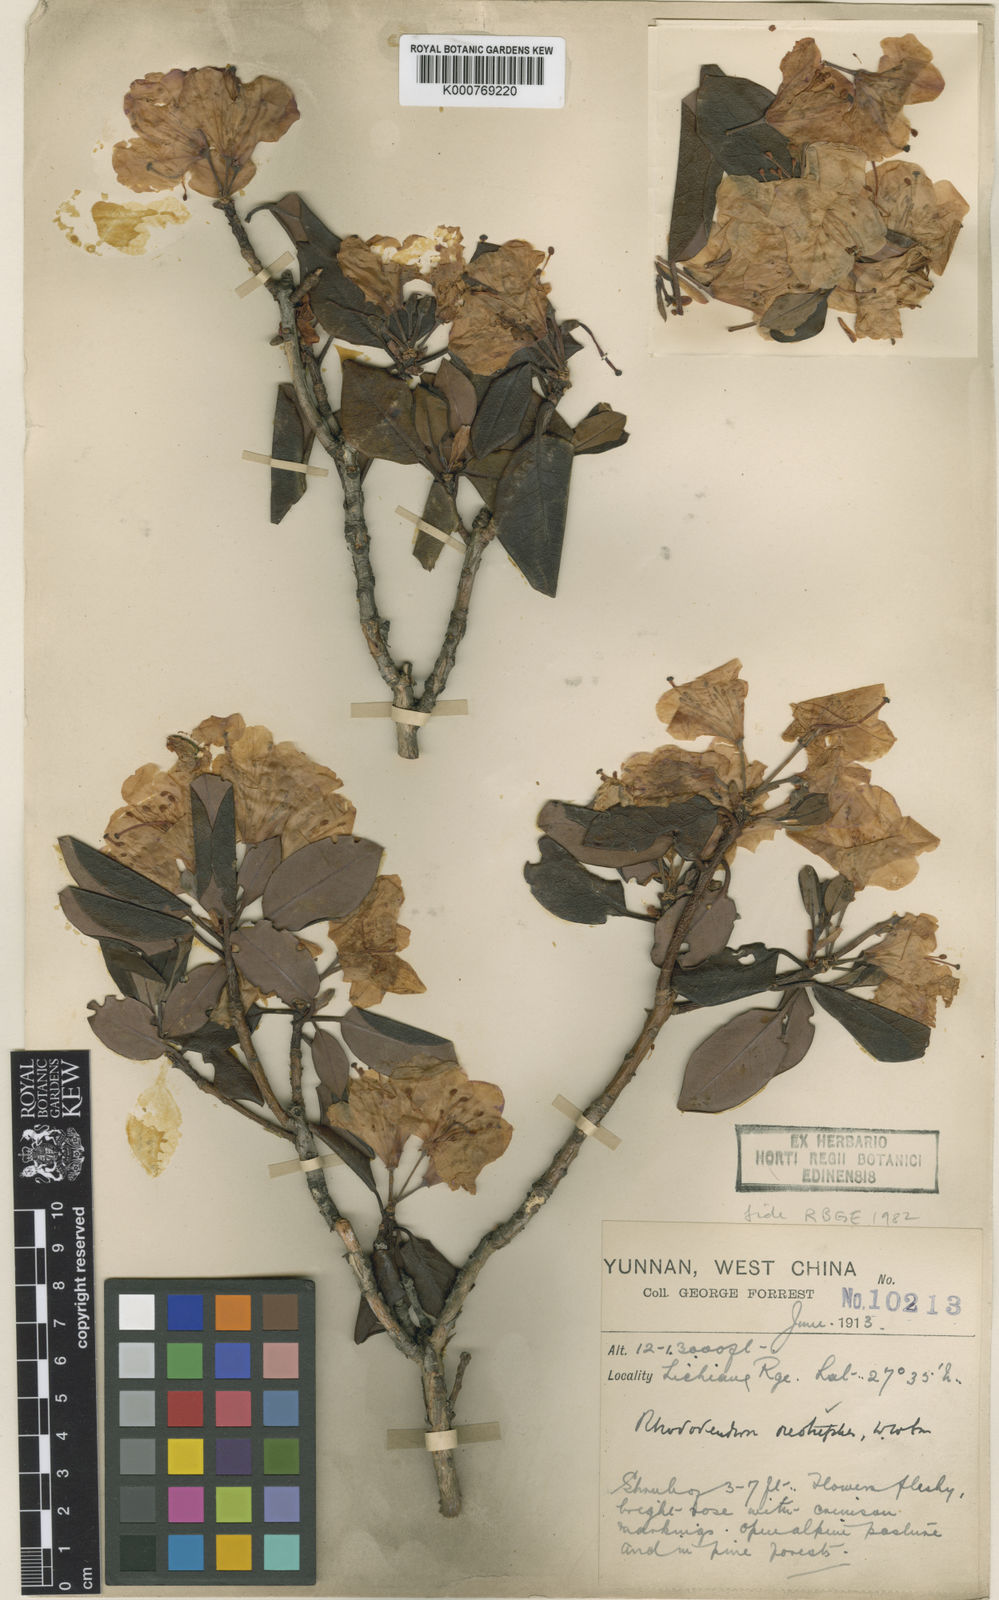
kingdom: Plantae
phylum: Tracheophyta
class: Magnoliopsida
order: Ericales
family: Ericaceae
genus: Rhododendron
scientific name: Rhododendron oreotrephes
